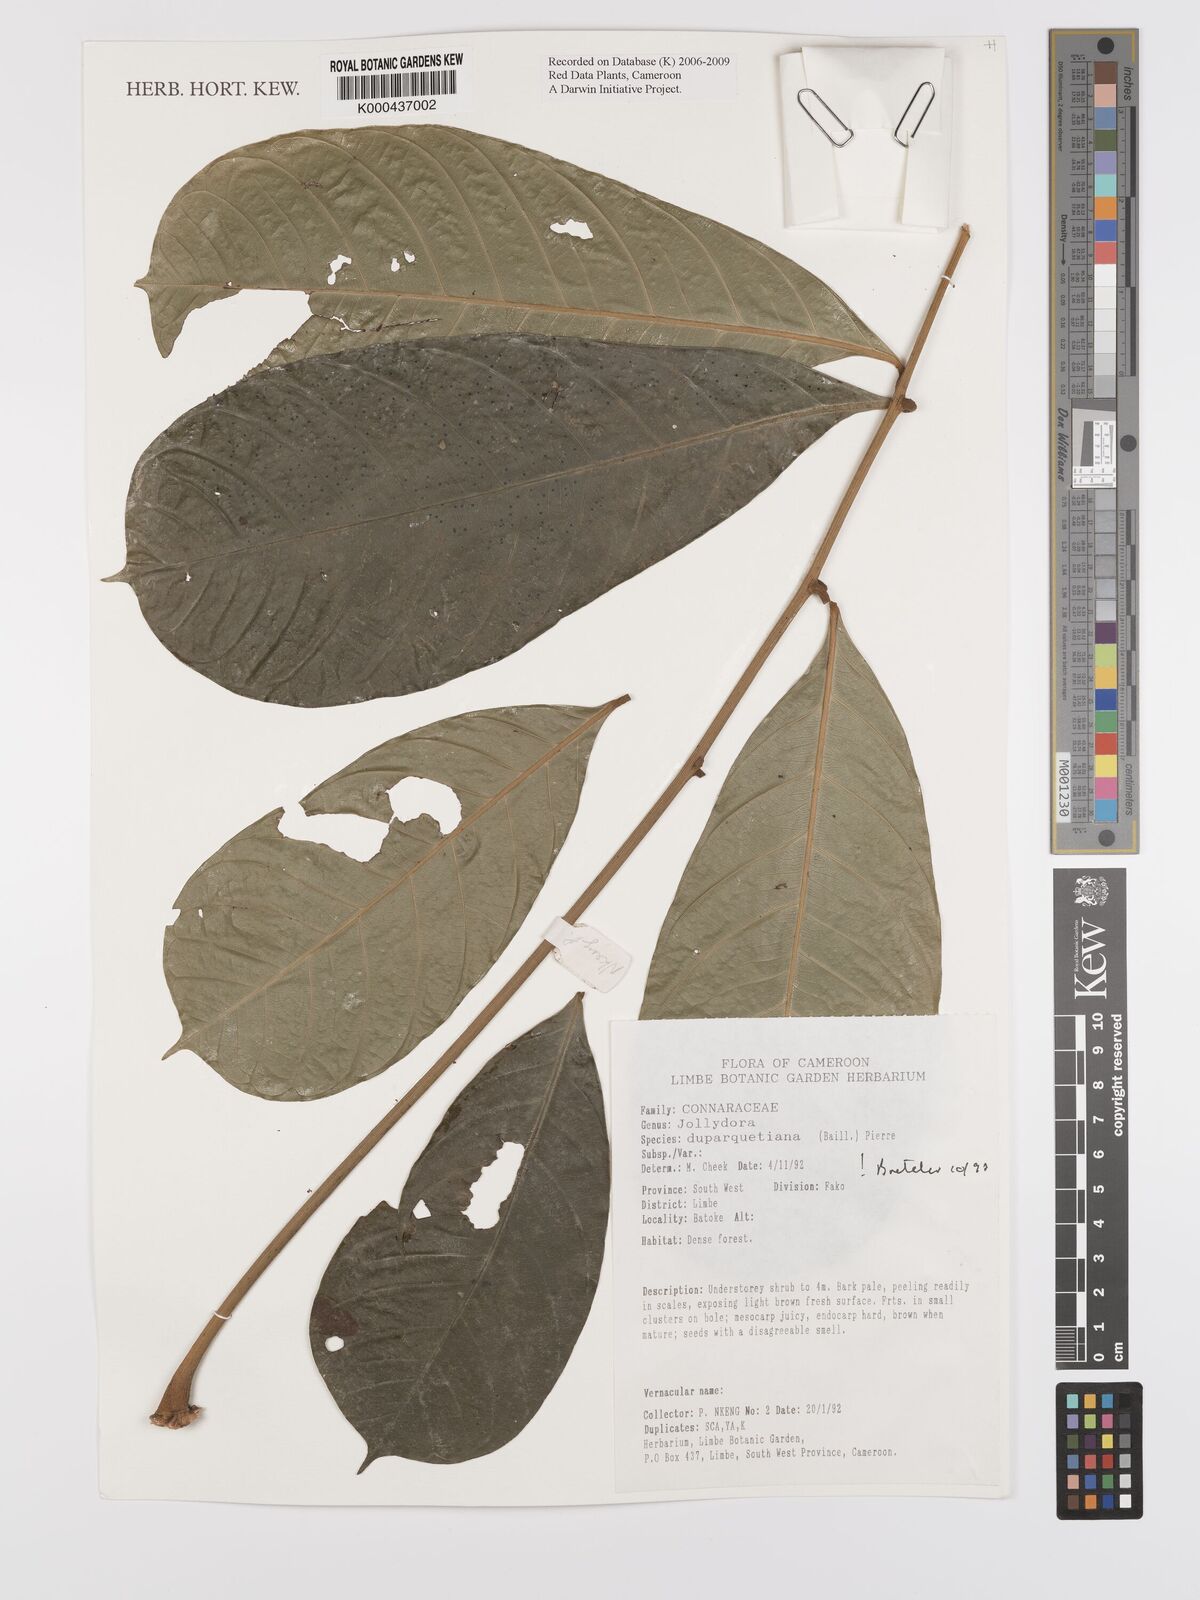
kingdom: Plantae
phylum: Tracheophyta
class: Magnoliopsida
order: Oxalidales
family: Connaraceae
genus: Jollydora
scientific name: Jollydora duparquetiana
